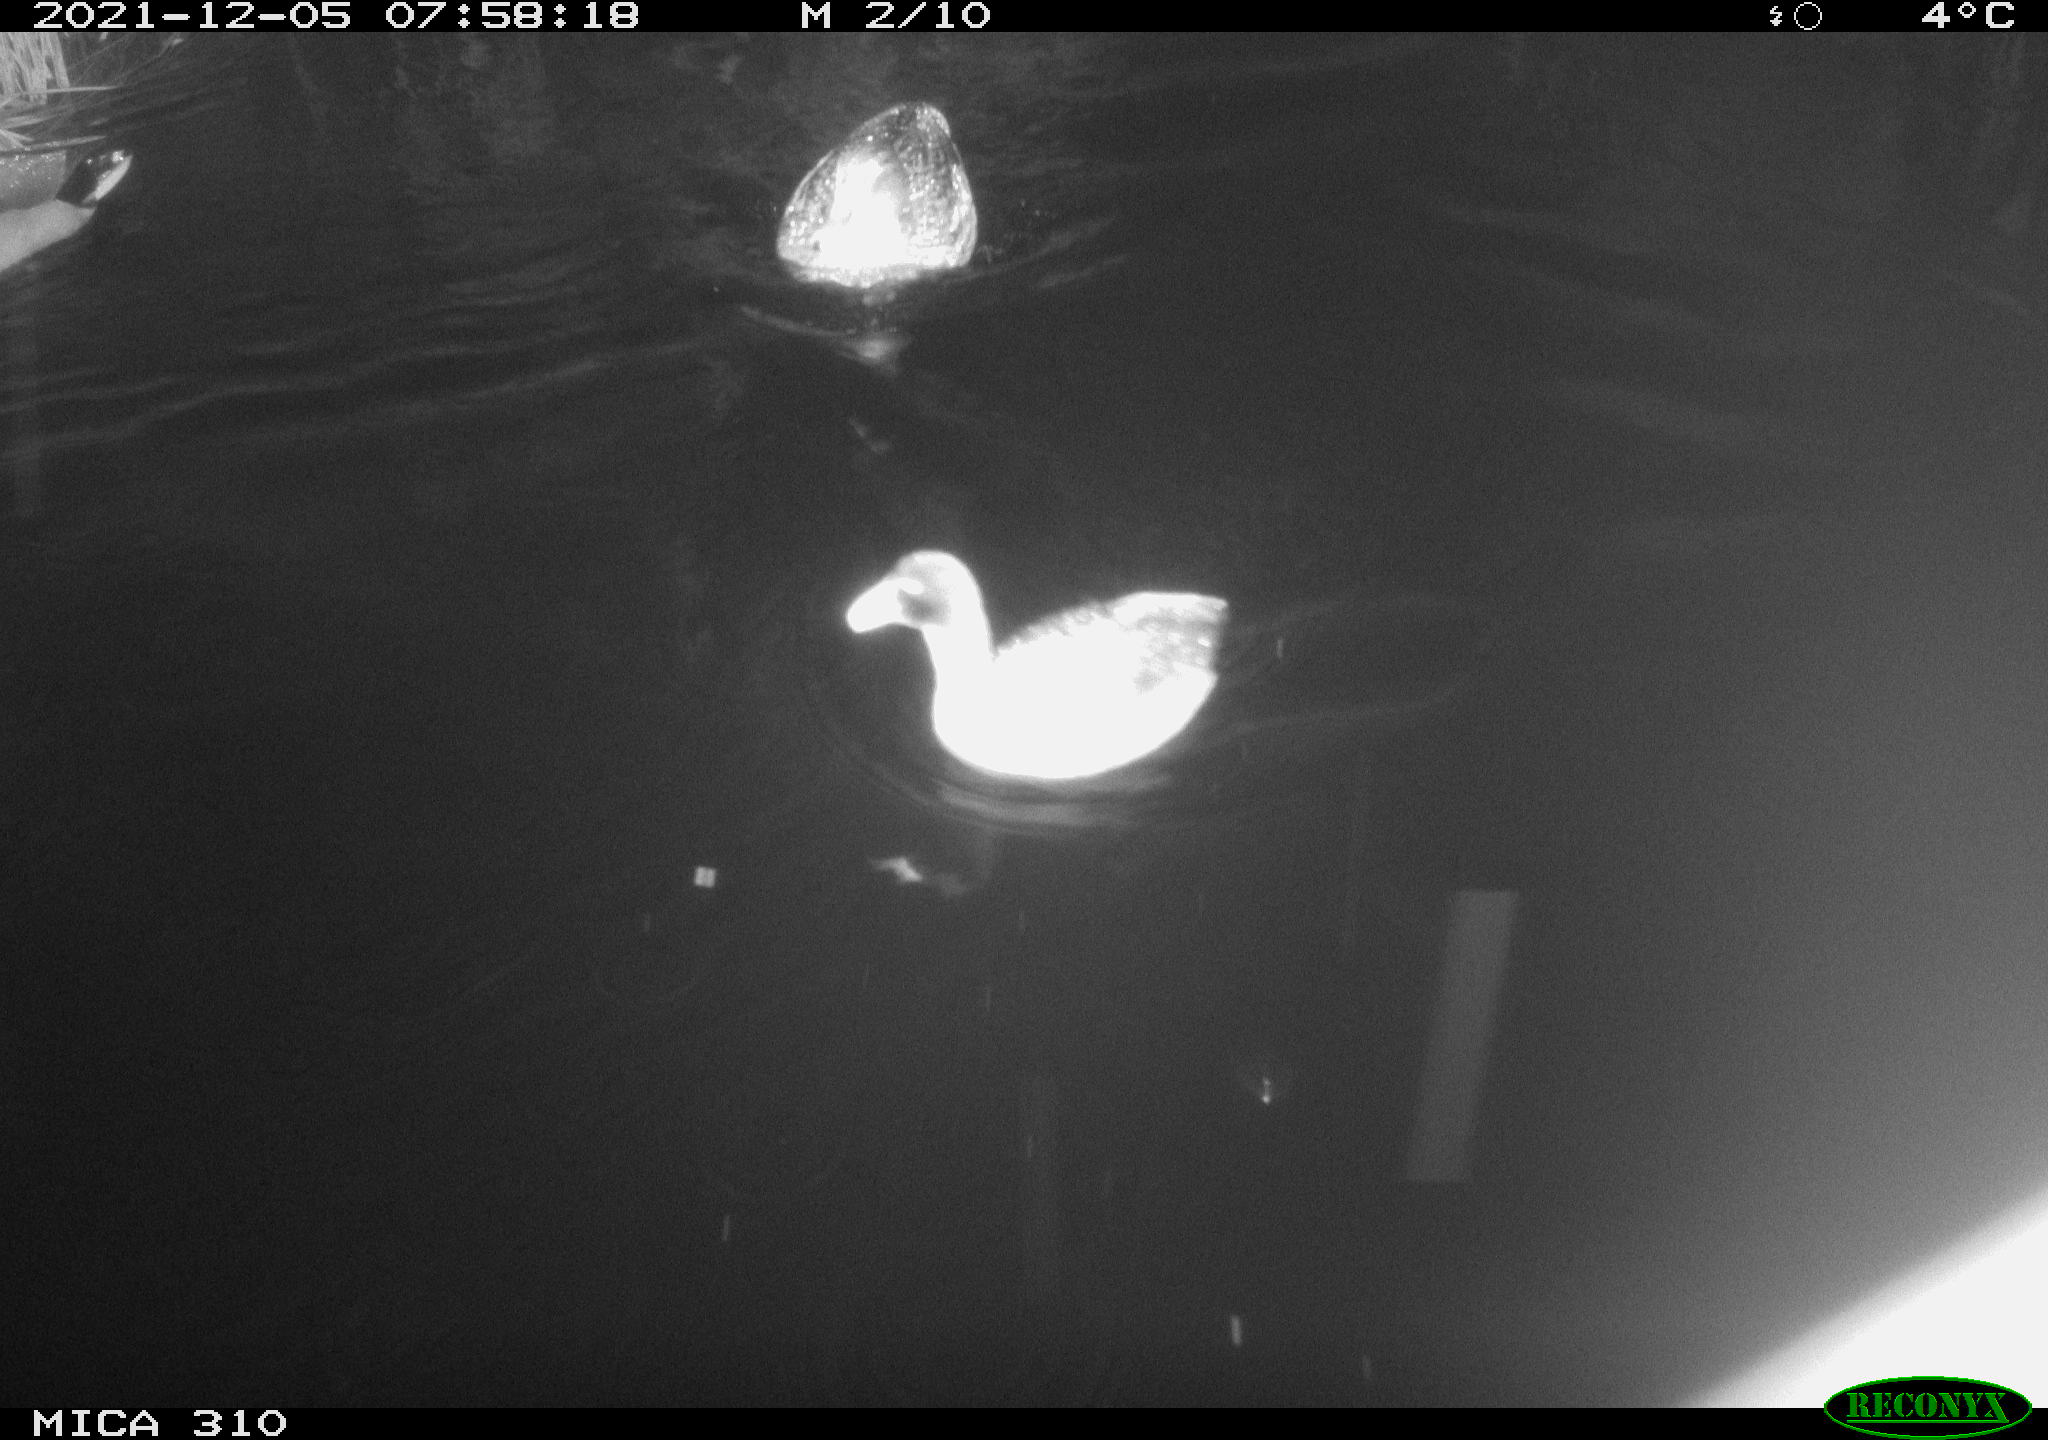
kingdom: Animalia
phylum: Chordata
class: Aves
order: Gruiformes
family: Rallidae
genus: Gallinula
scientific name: Gallinula chloropus
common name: Common moorhen
